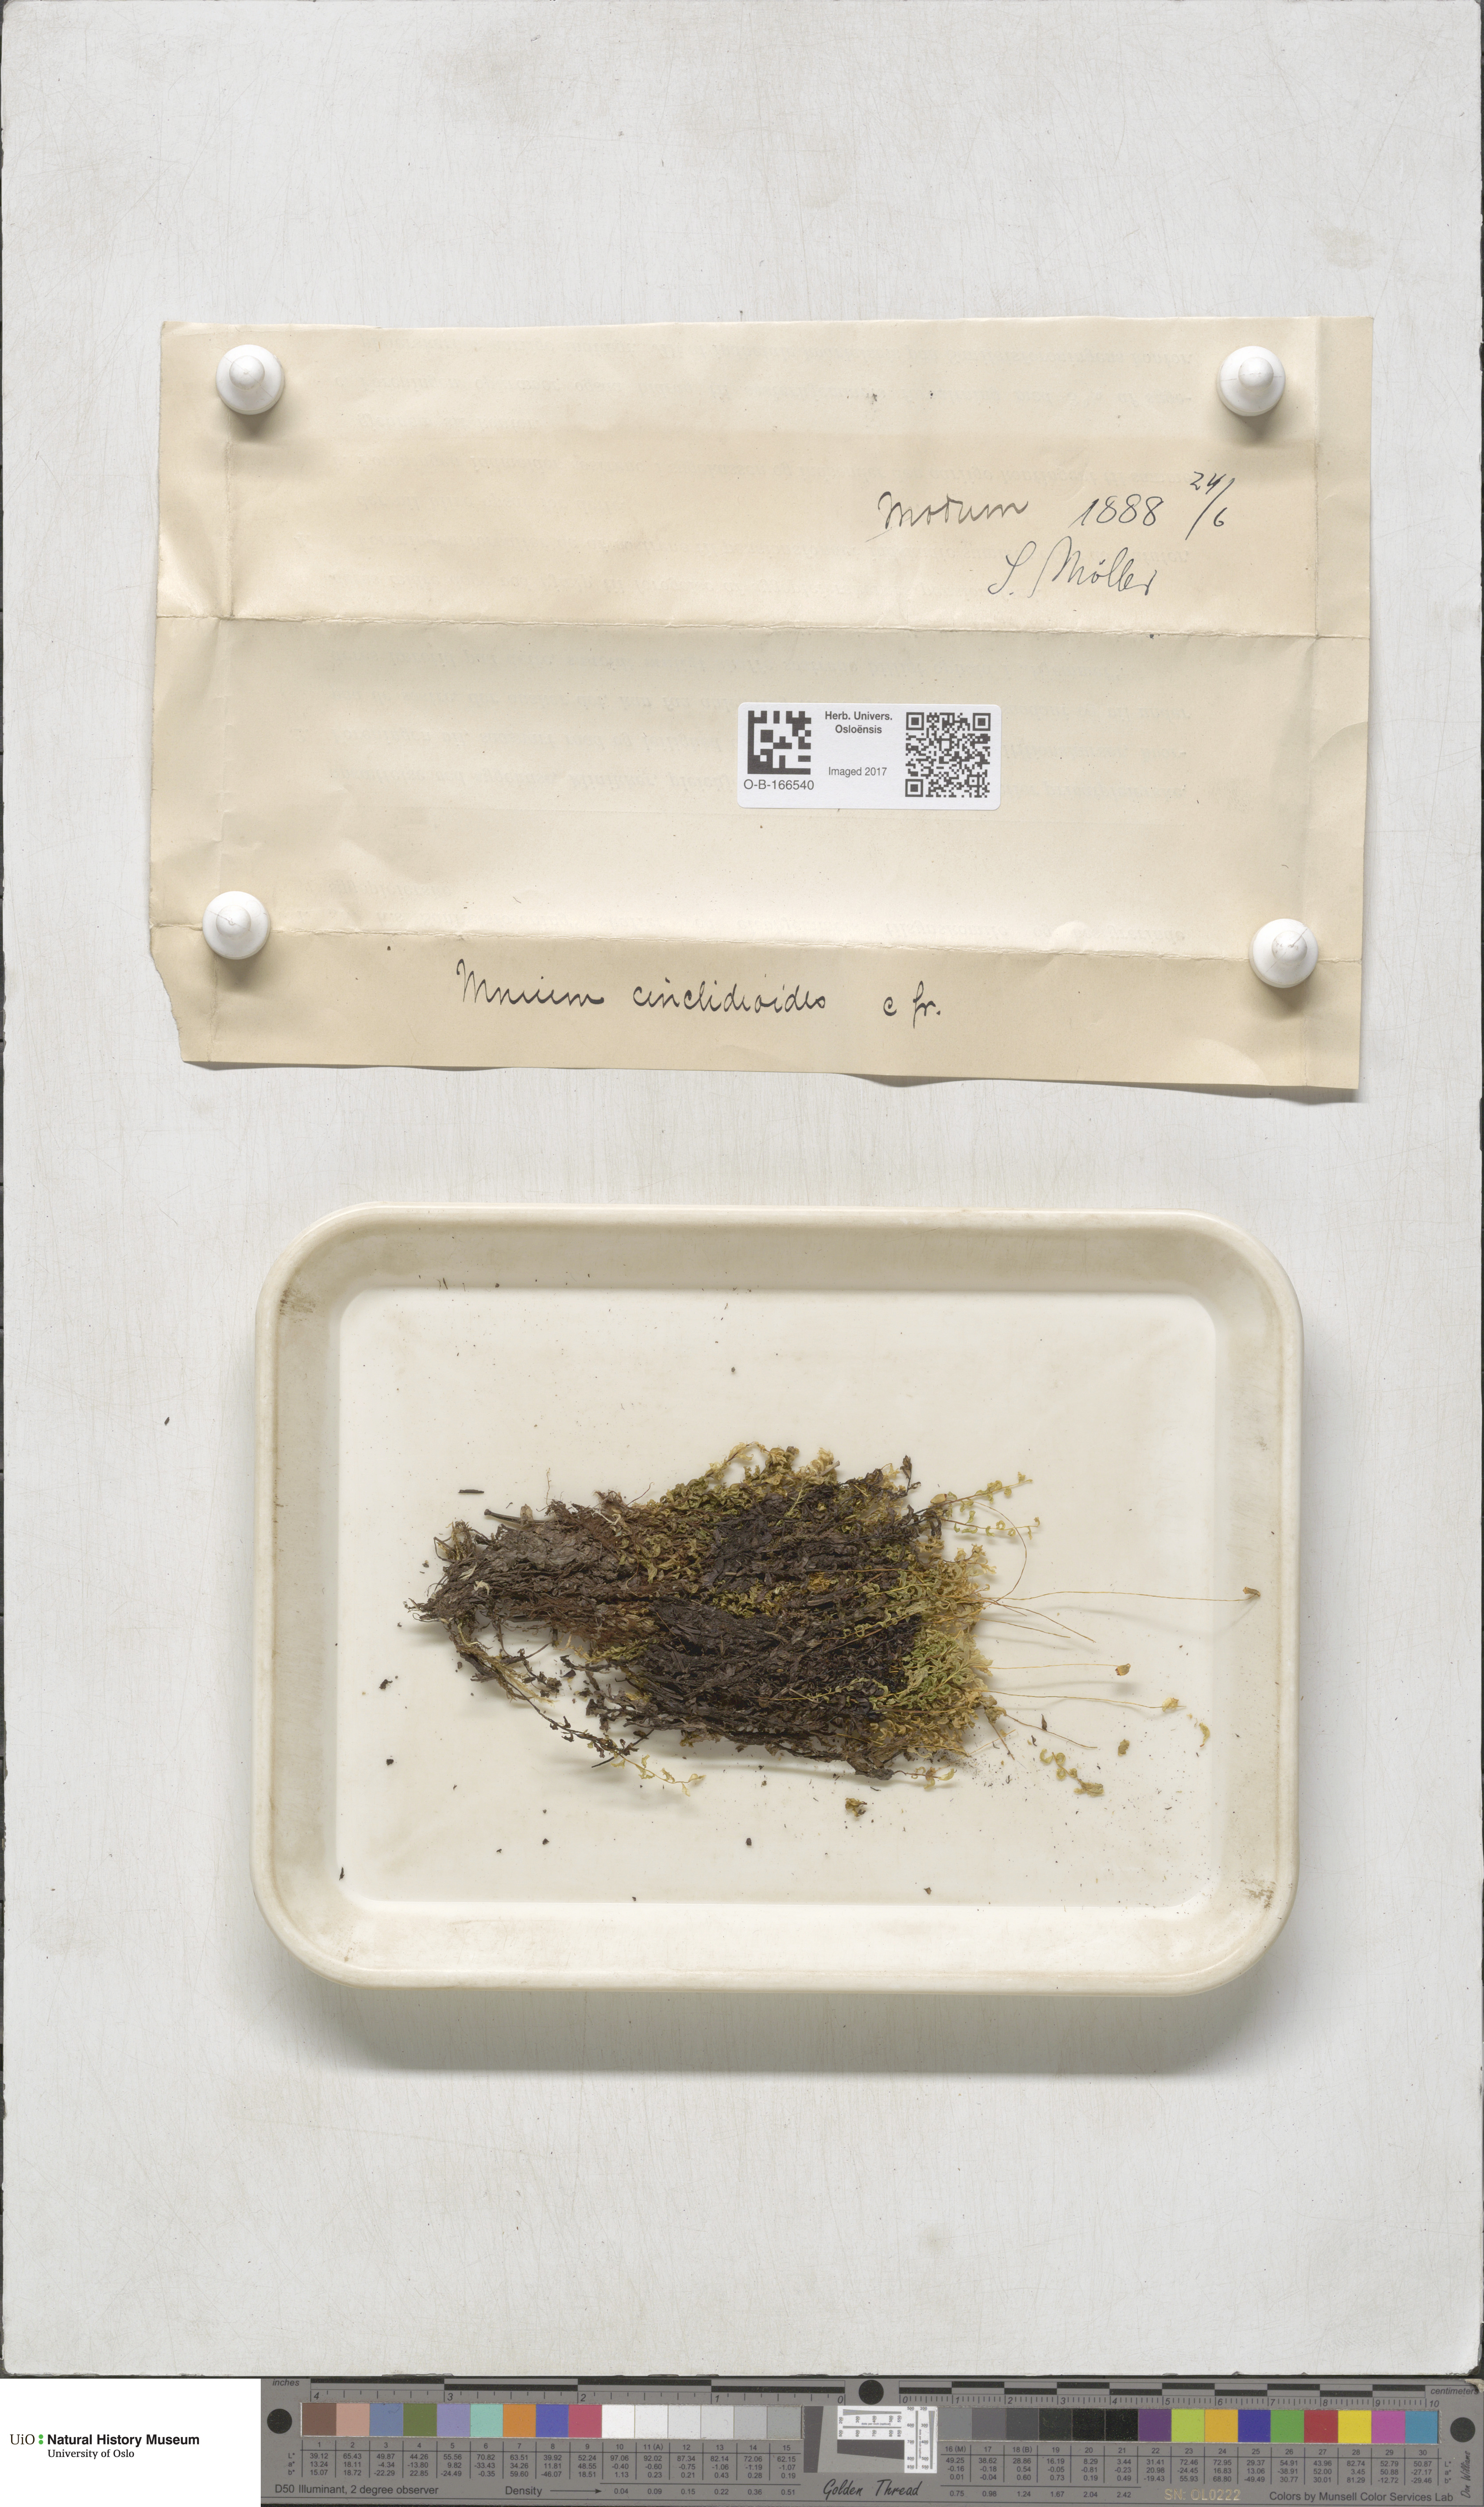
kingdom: Plantae
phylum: Bryophyta
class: Bryopsida
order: Bryales
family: Mniaceae
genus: Pseudobryum
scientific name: Pseudobryum cinclidioides
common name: River thyme moss
